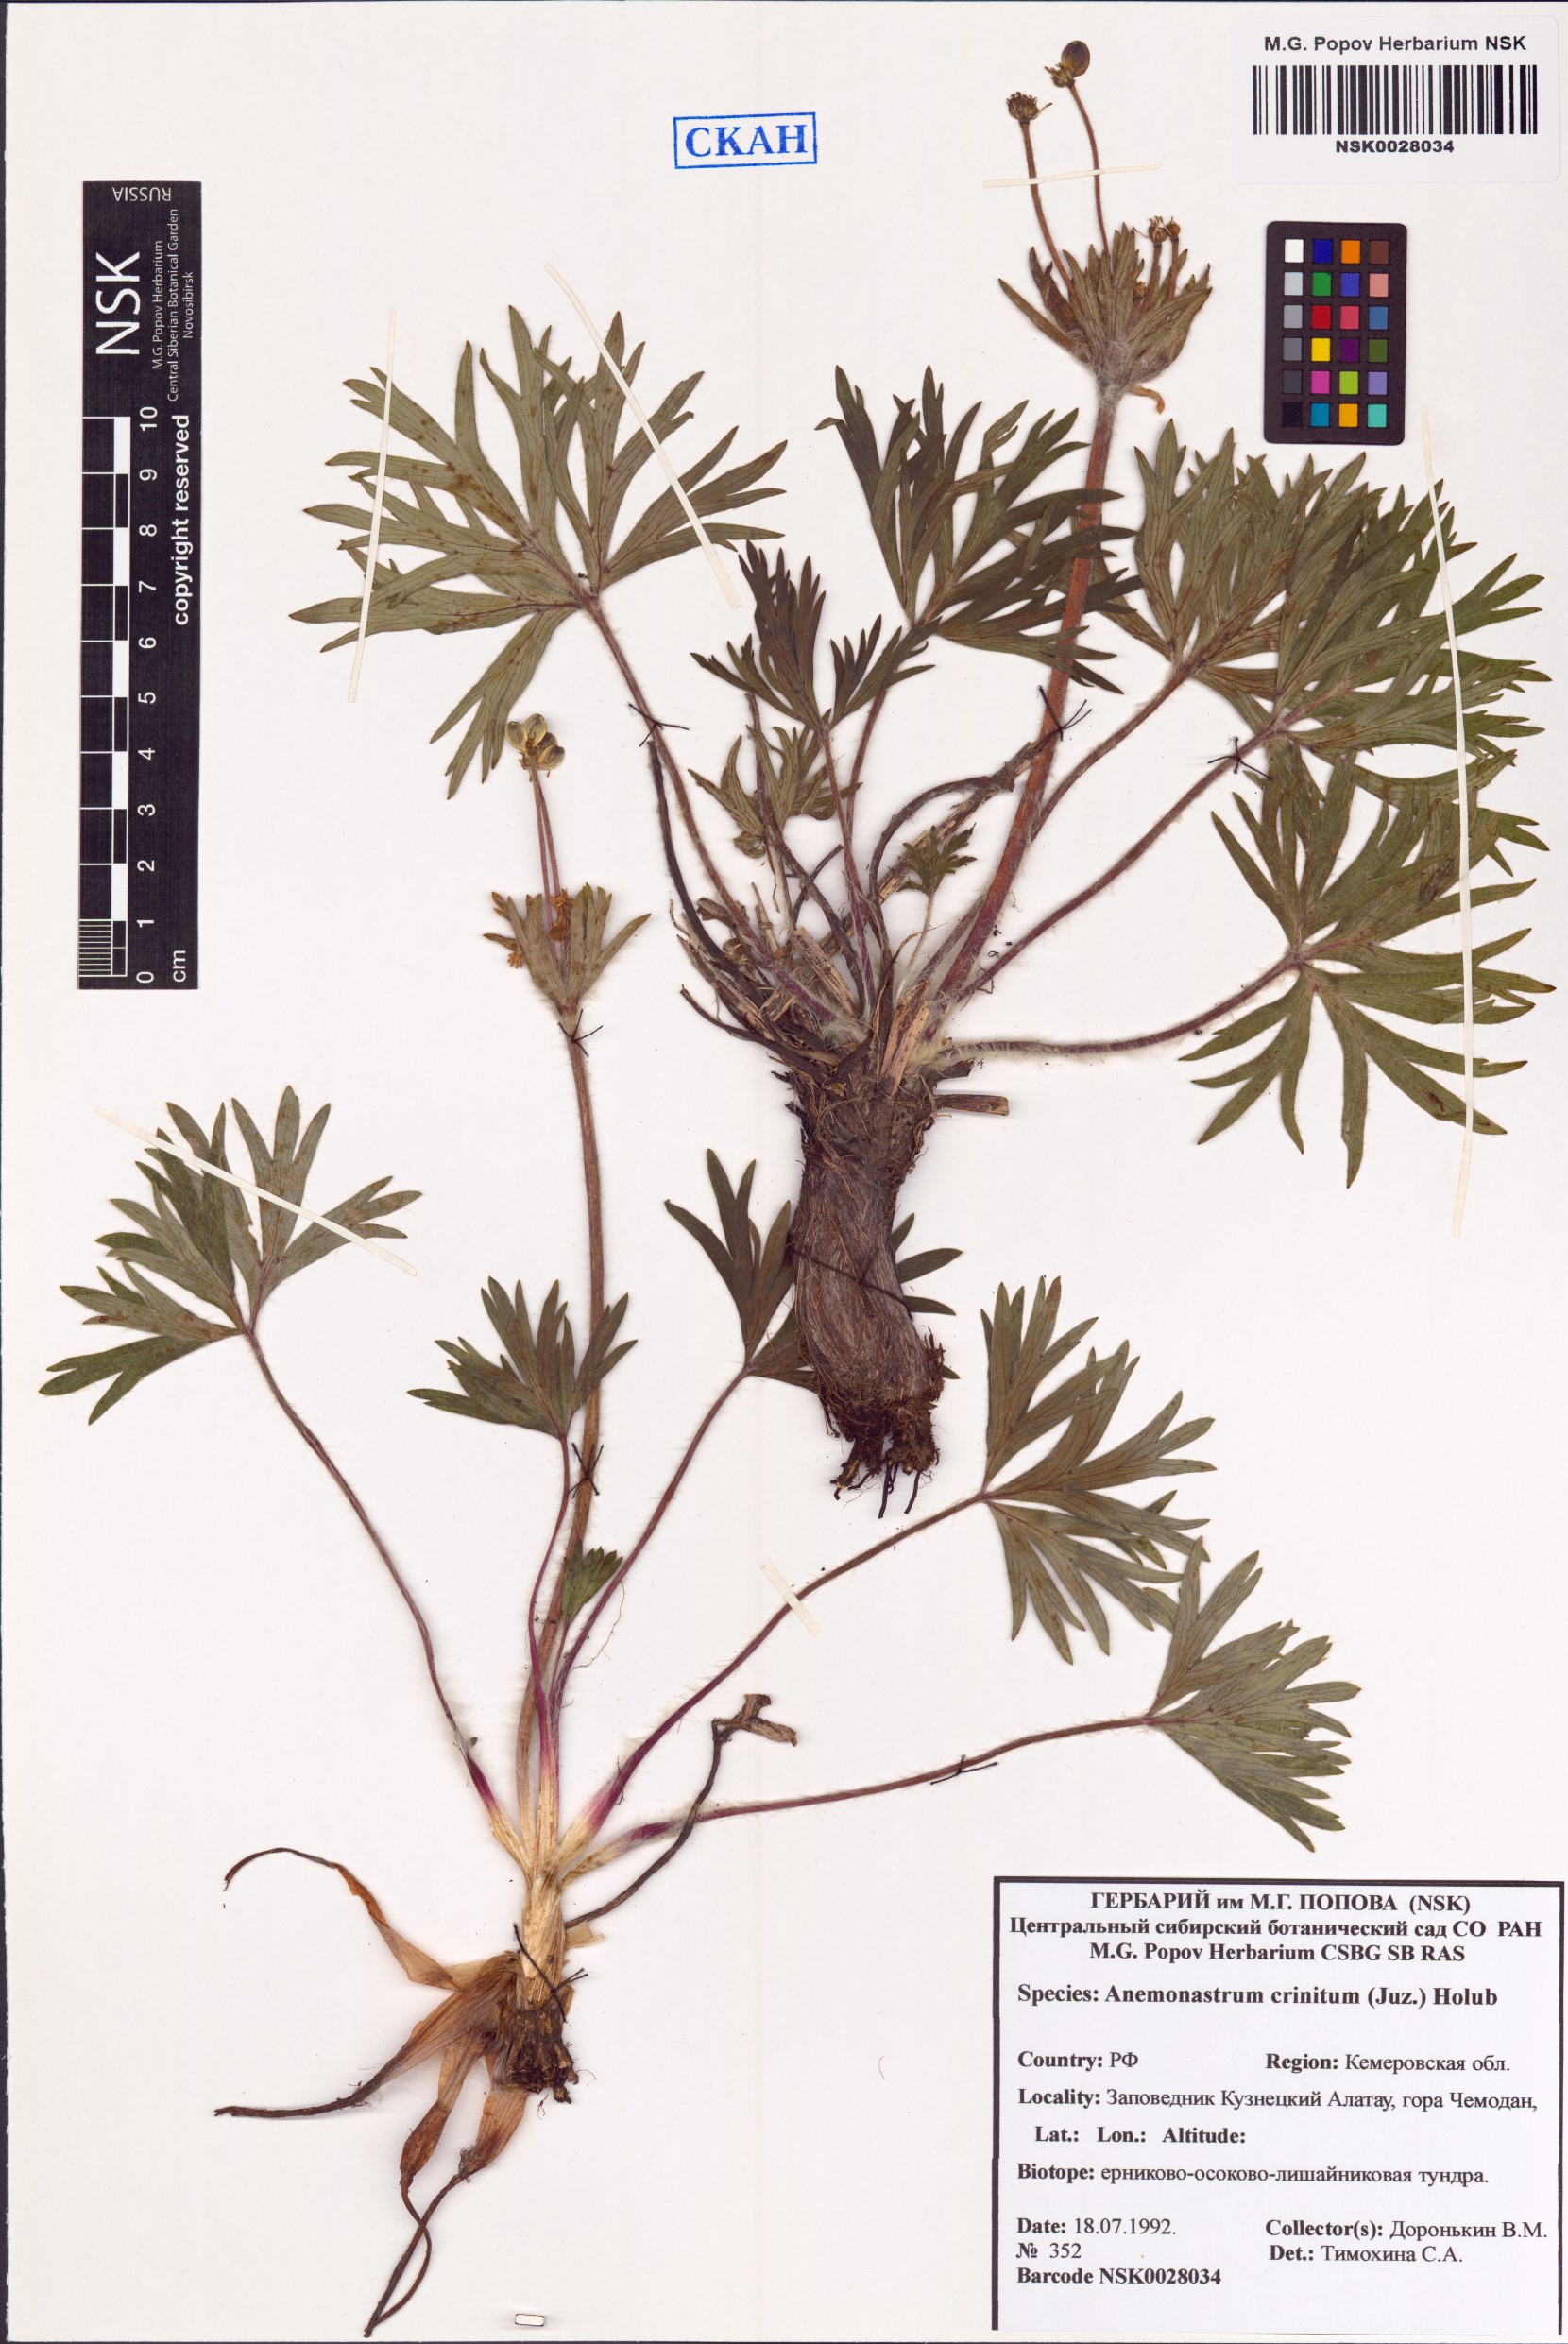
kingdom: Plantae
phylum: Tracheophyta
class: Magnoliopsida
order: Ranunculales
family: Ranunculaceae
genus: Anemonastrum
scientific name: Anemonastrum narcissiflorum
